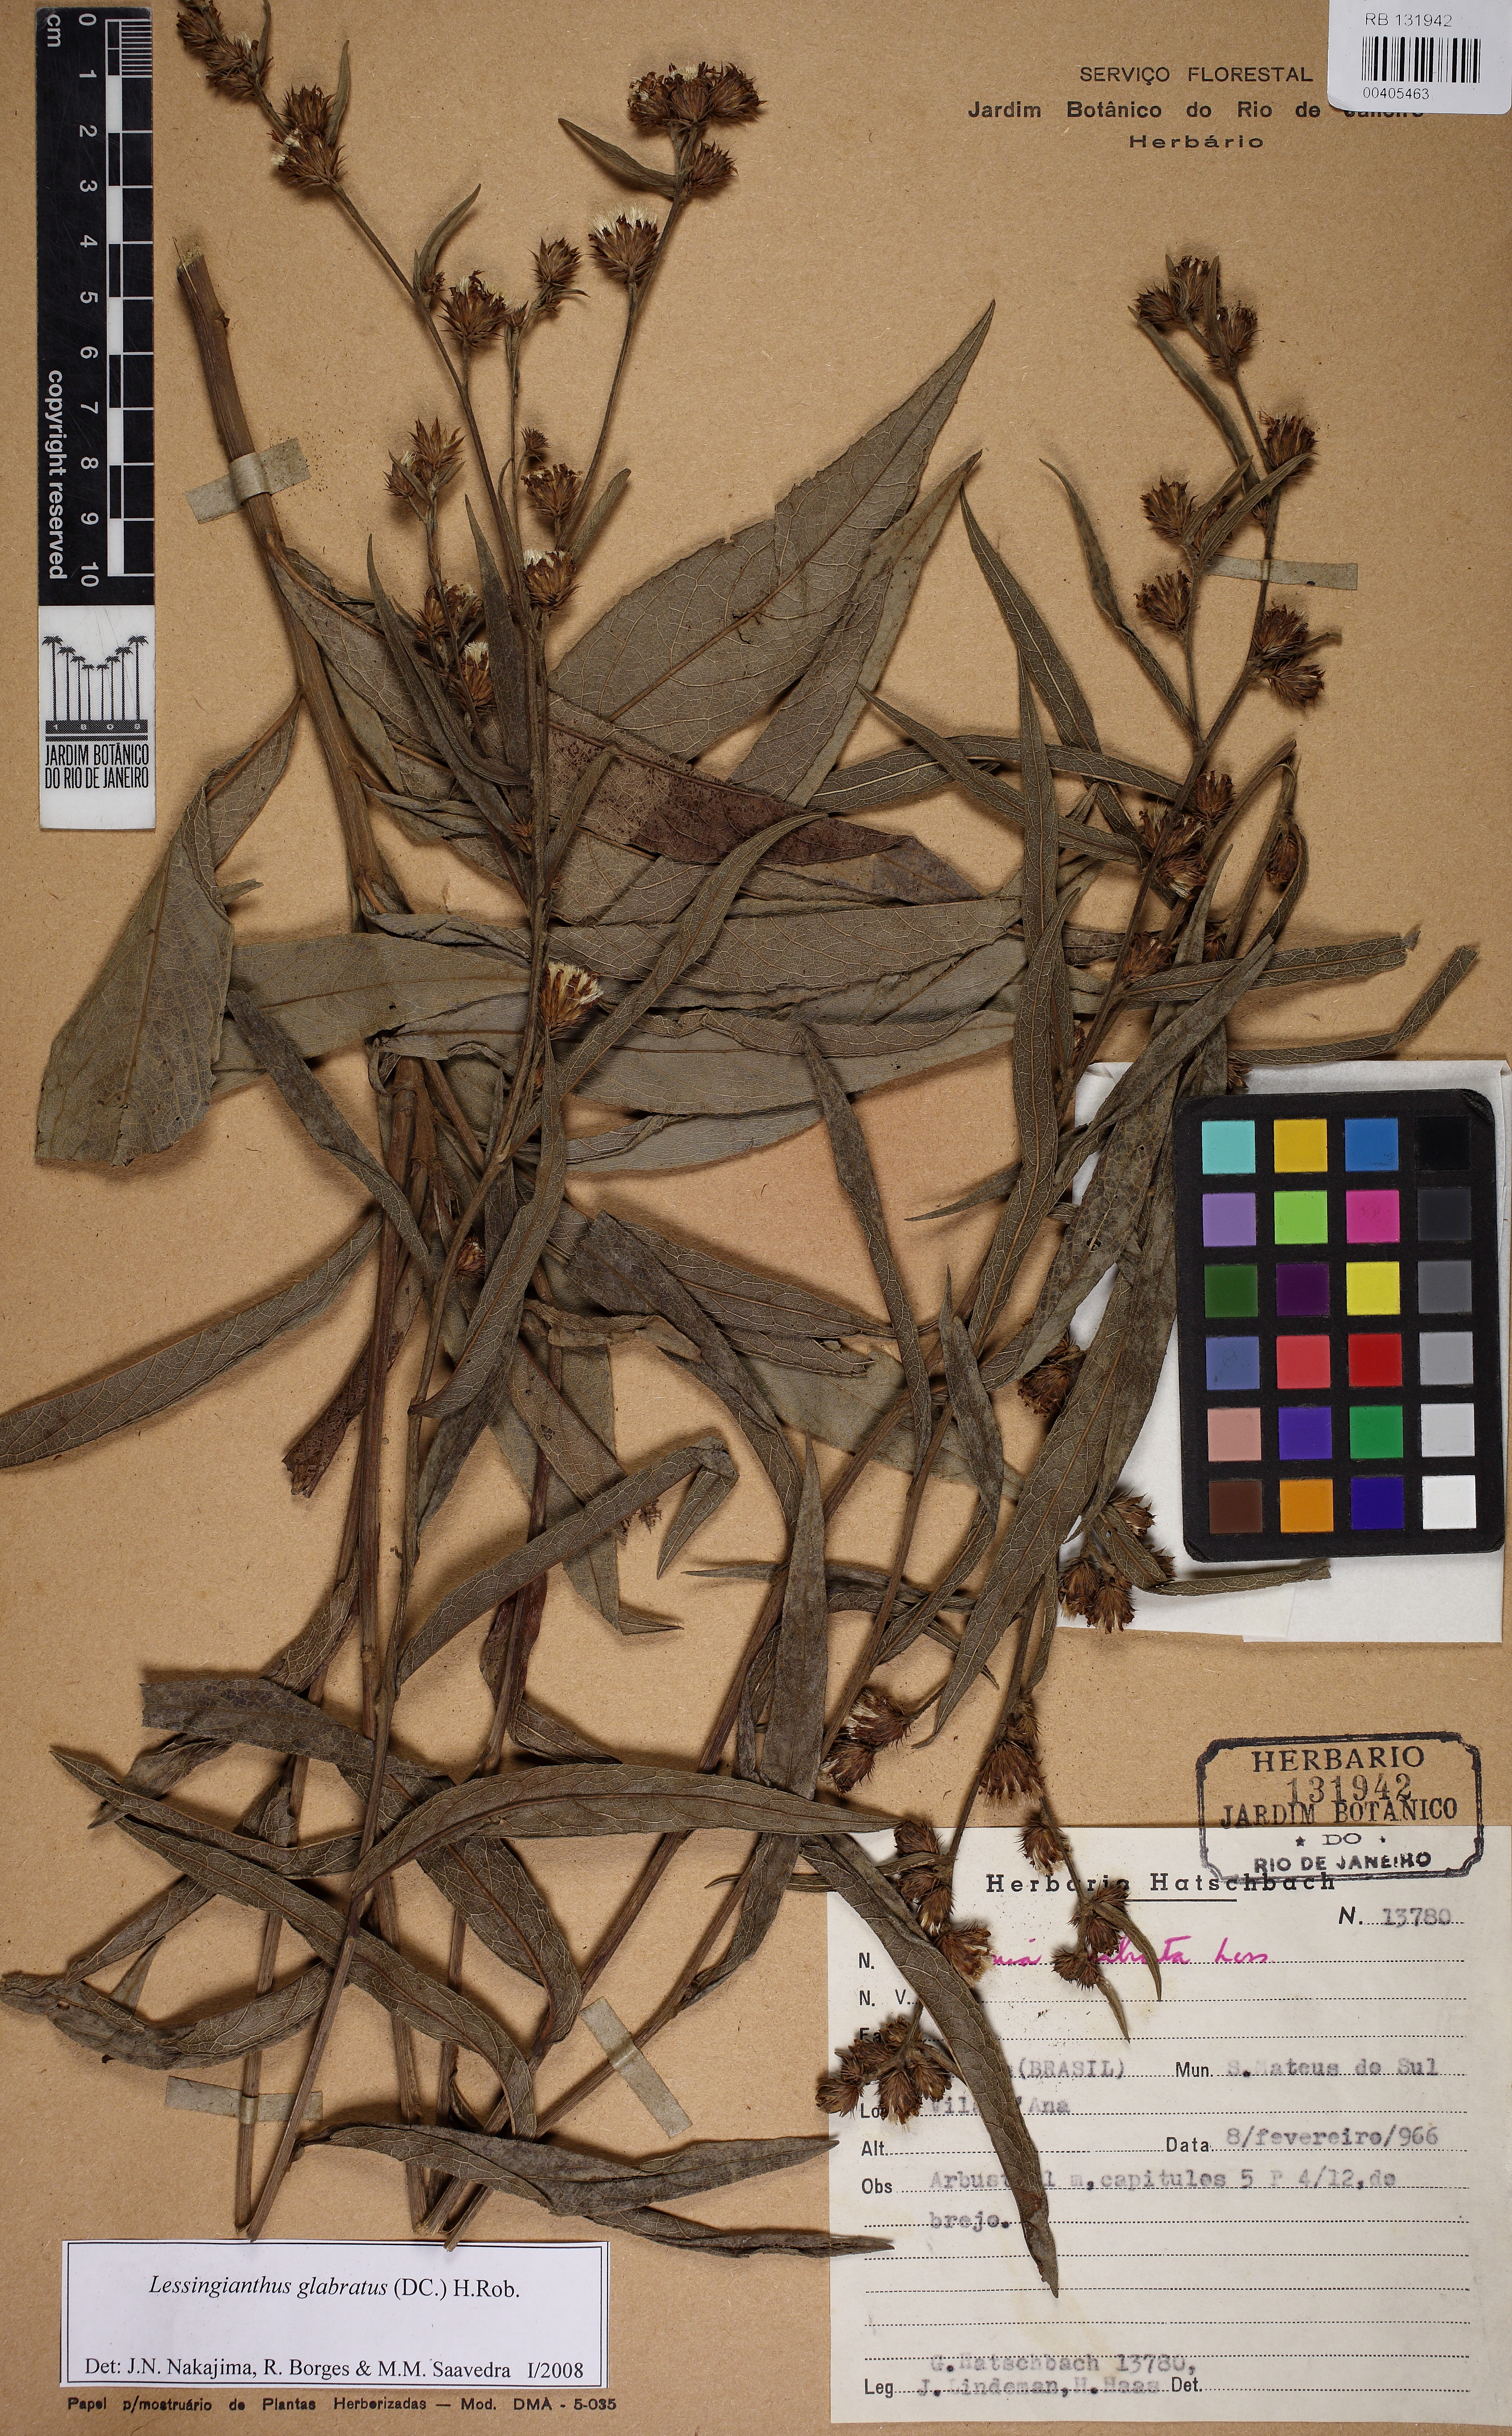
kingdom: Plantae
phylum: Tracheophyta
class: Magnoliopsida
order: Asterales
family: Asteraceae
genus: Lessingianthus
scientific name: Lessingianthus glabratus
